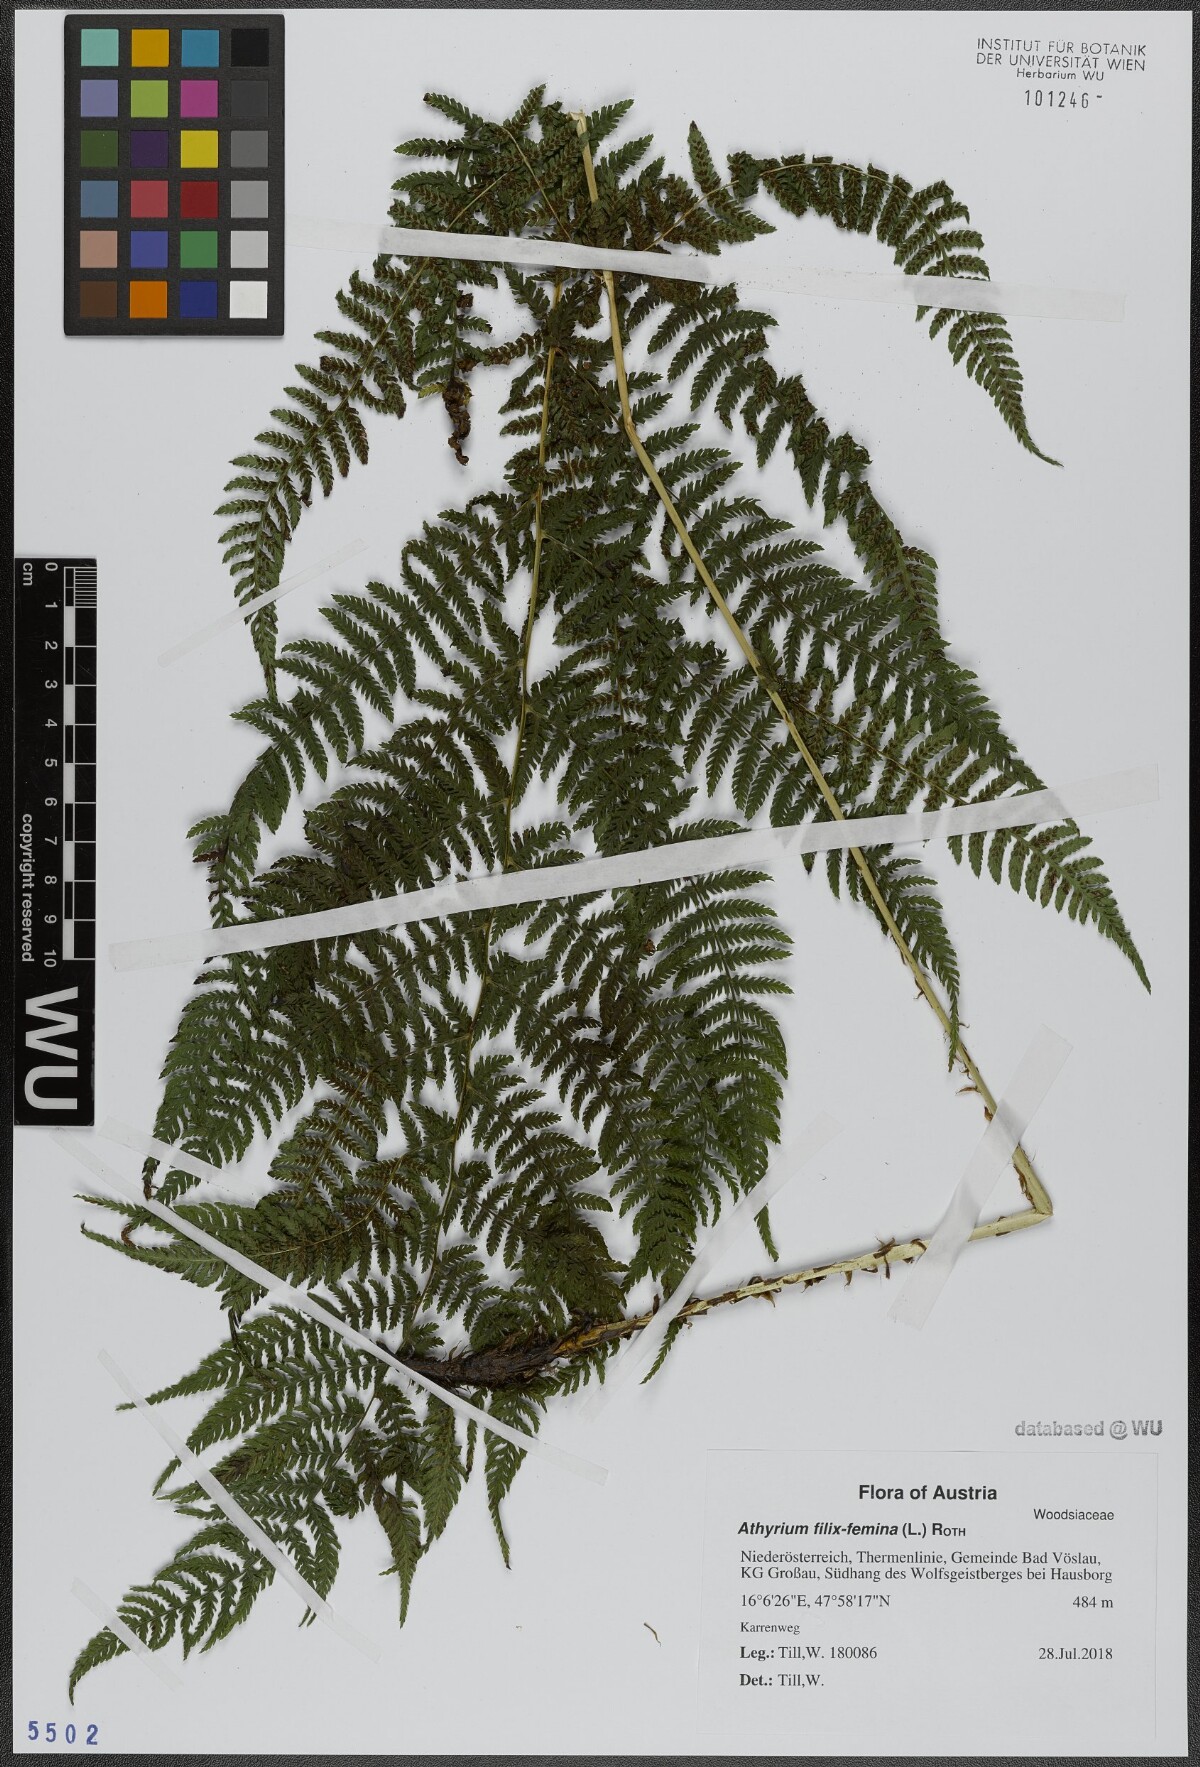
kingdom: Plantae
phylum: Tracheophyta
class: Polypodiopsida
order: Polypodiales
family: Athyriaceae
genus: Athyrium
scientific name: Athyrium filix-femina
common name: Lady fern
